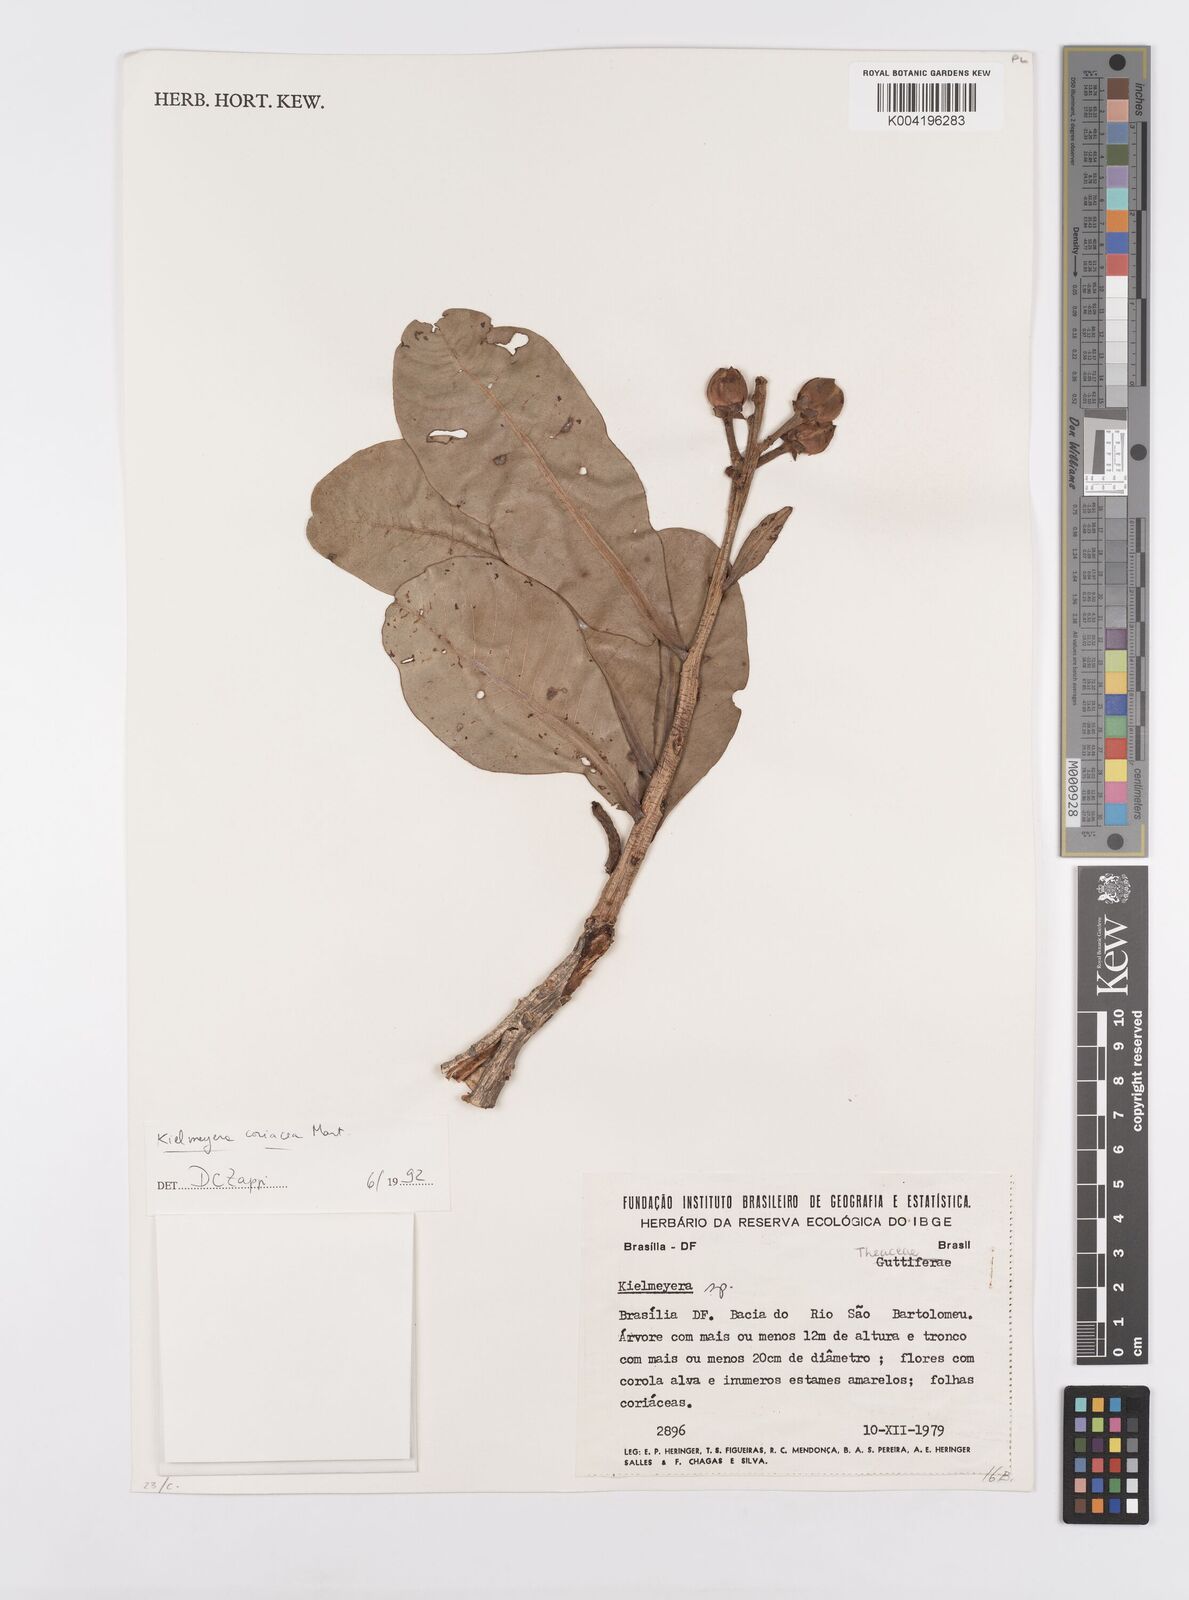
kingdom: Plantae
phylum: Tracheophyta
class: Magnoliopsida
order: Malpighiales
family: Calophyllaceae
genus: Kielmeyera
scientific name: Kielmeyera coriacea
